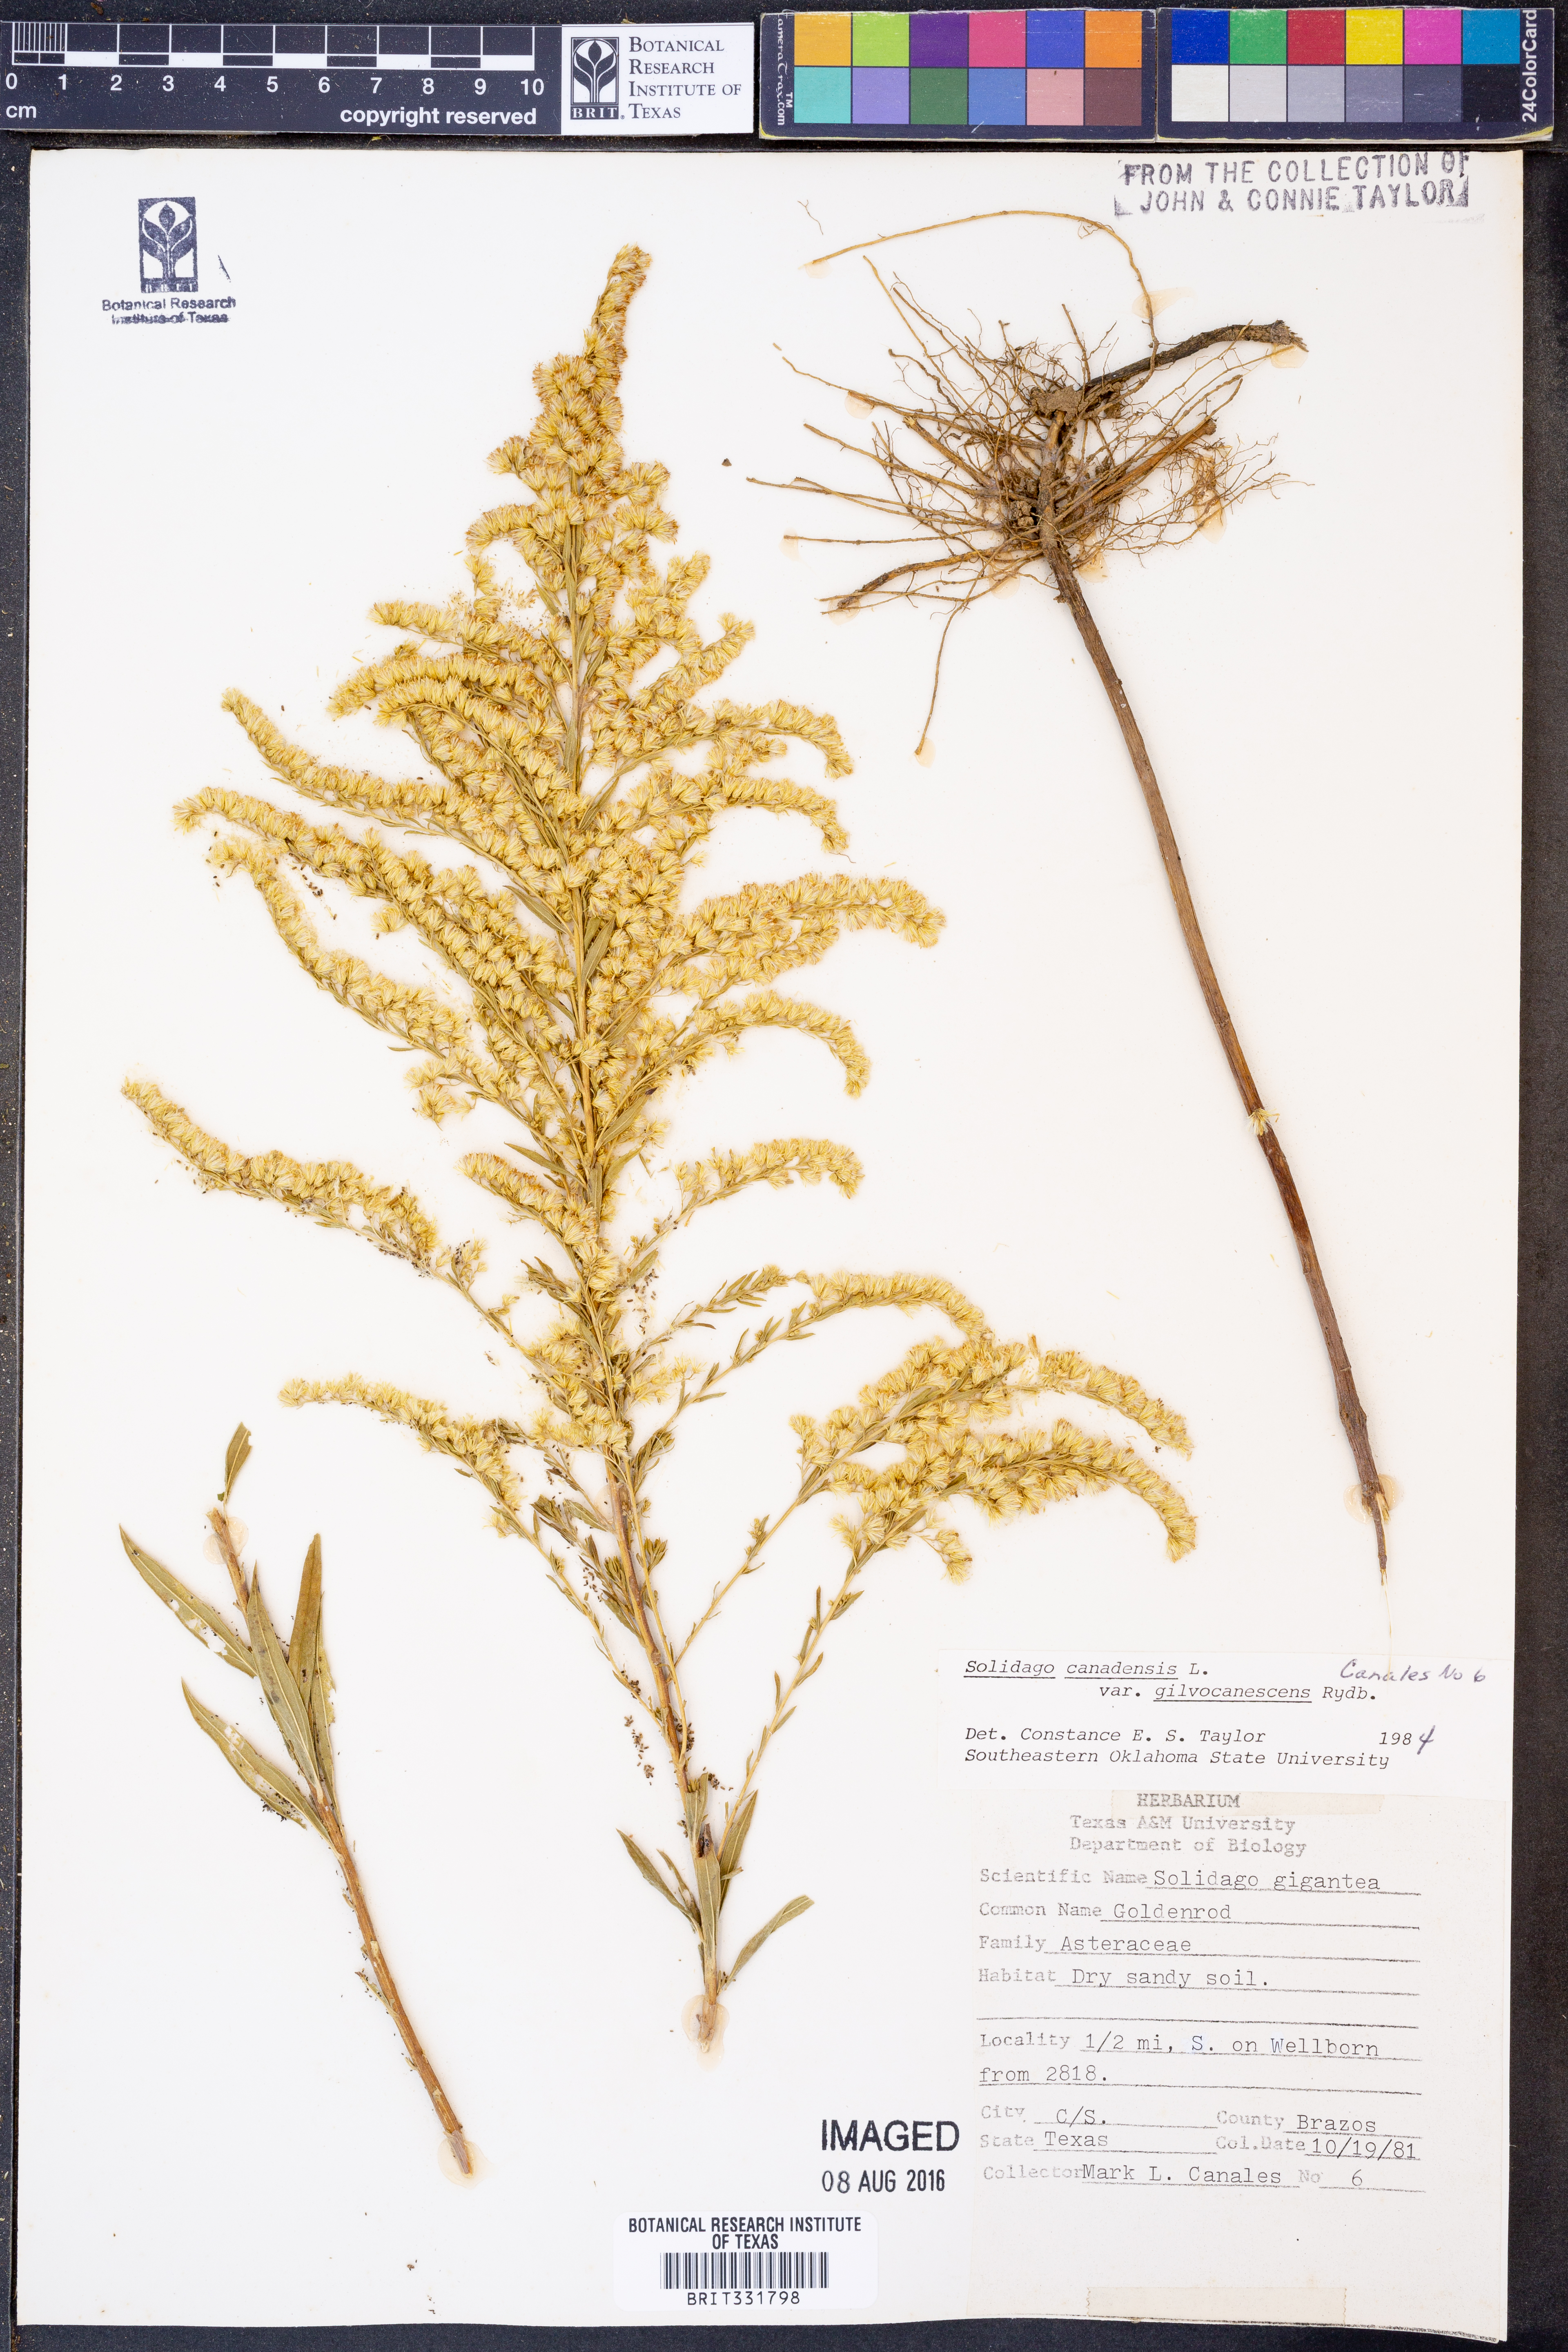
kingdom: Plantae
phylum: Tracheophyta
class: Magnoliopsida
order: Asterales
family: Asteraceae
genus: Solidago
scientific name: Solidago altissima
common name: Late goldenrod
